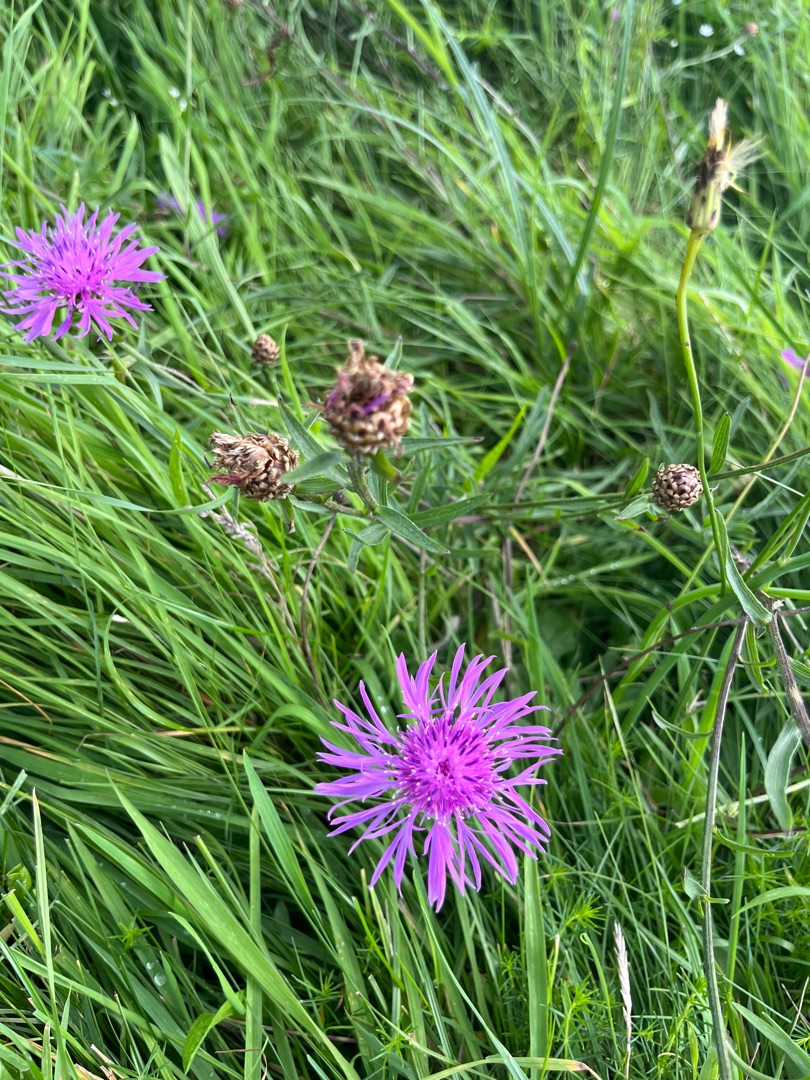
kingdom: Plantae
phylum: Tracheophyta
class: Magnoliopsida
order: Asterales
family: Asteraceae
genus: Centaurea
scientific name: Centaurea jacea
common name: Almindelig knopurt
